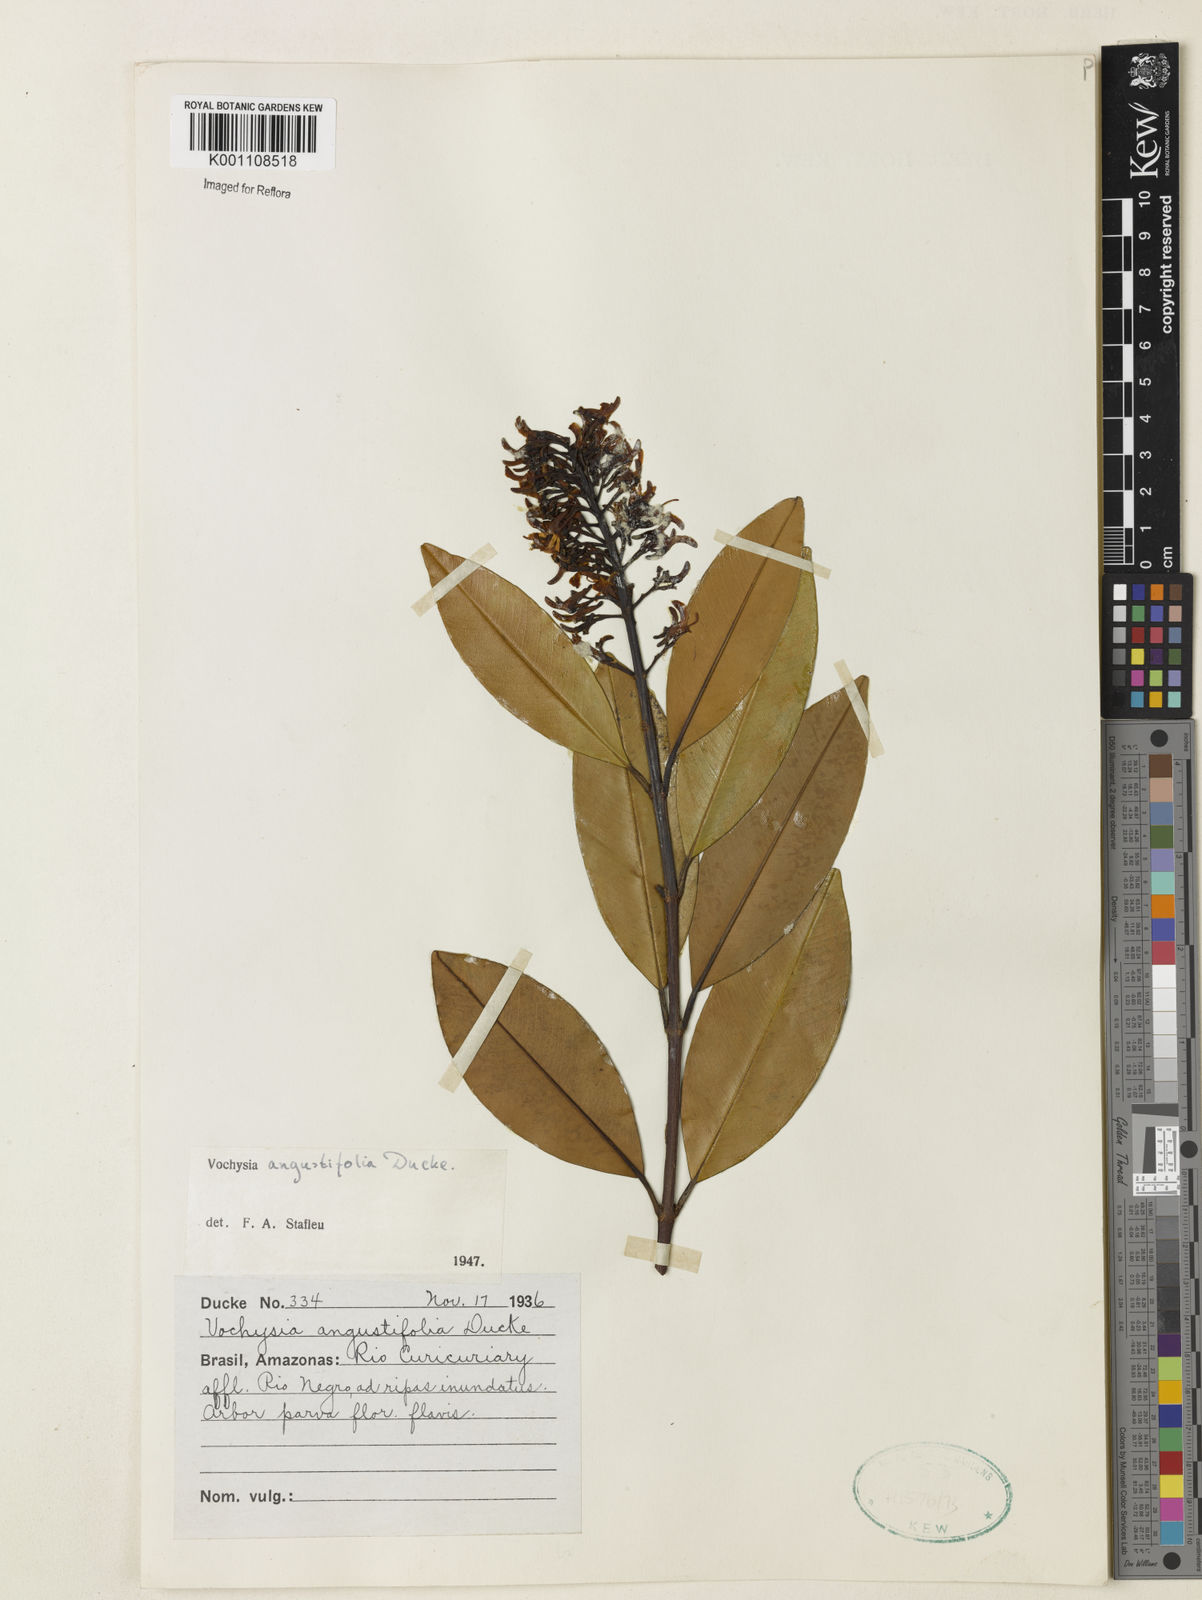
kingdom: Plantae
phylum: Tracheophyta
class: Magnoliopsida
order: Myrtales
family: Vochysiaceae
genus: Vochysia
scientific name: Vochysia angustifolia
